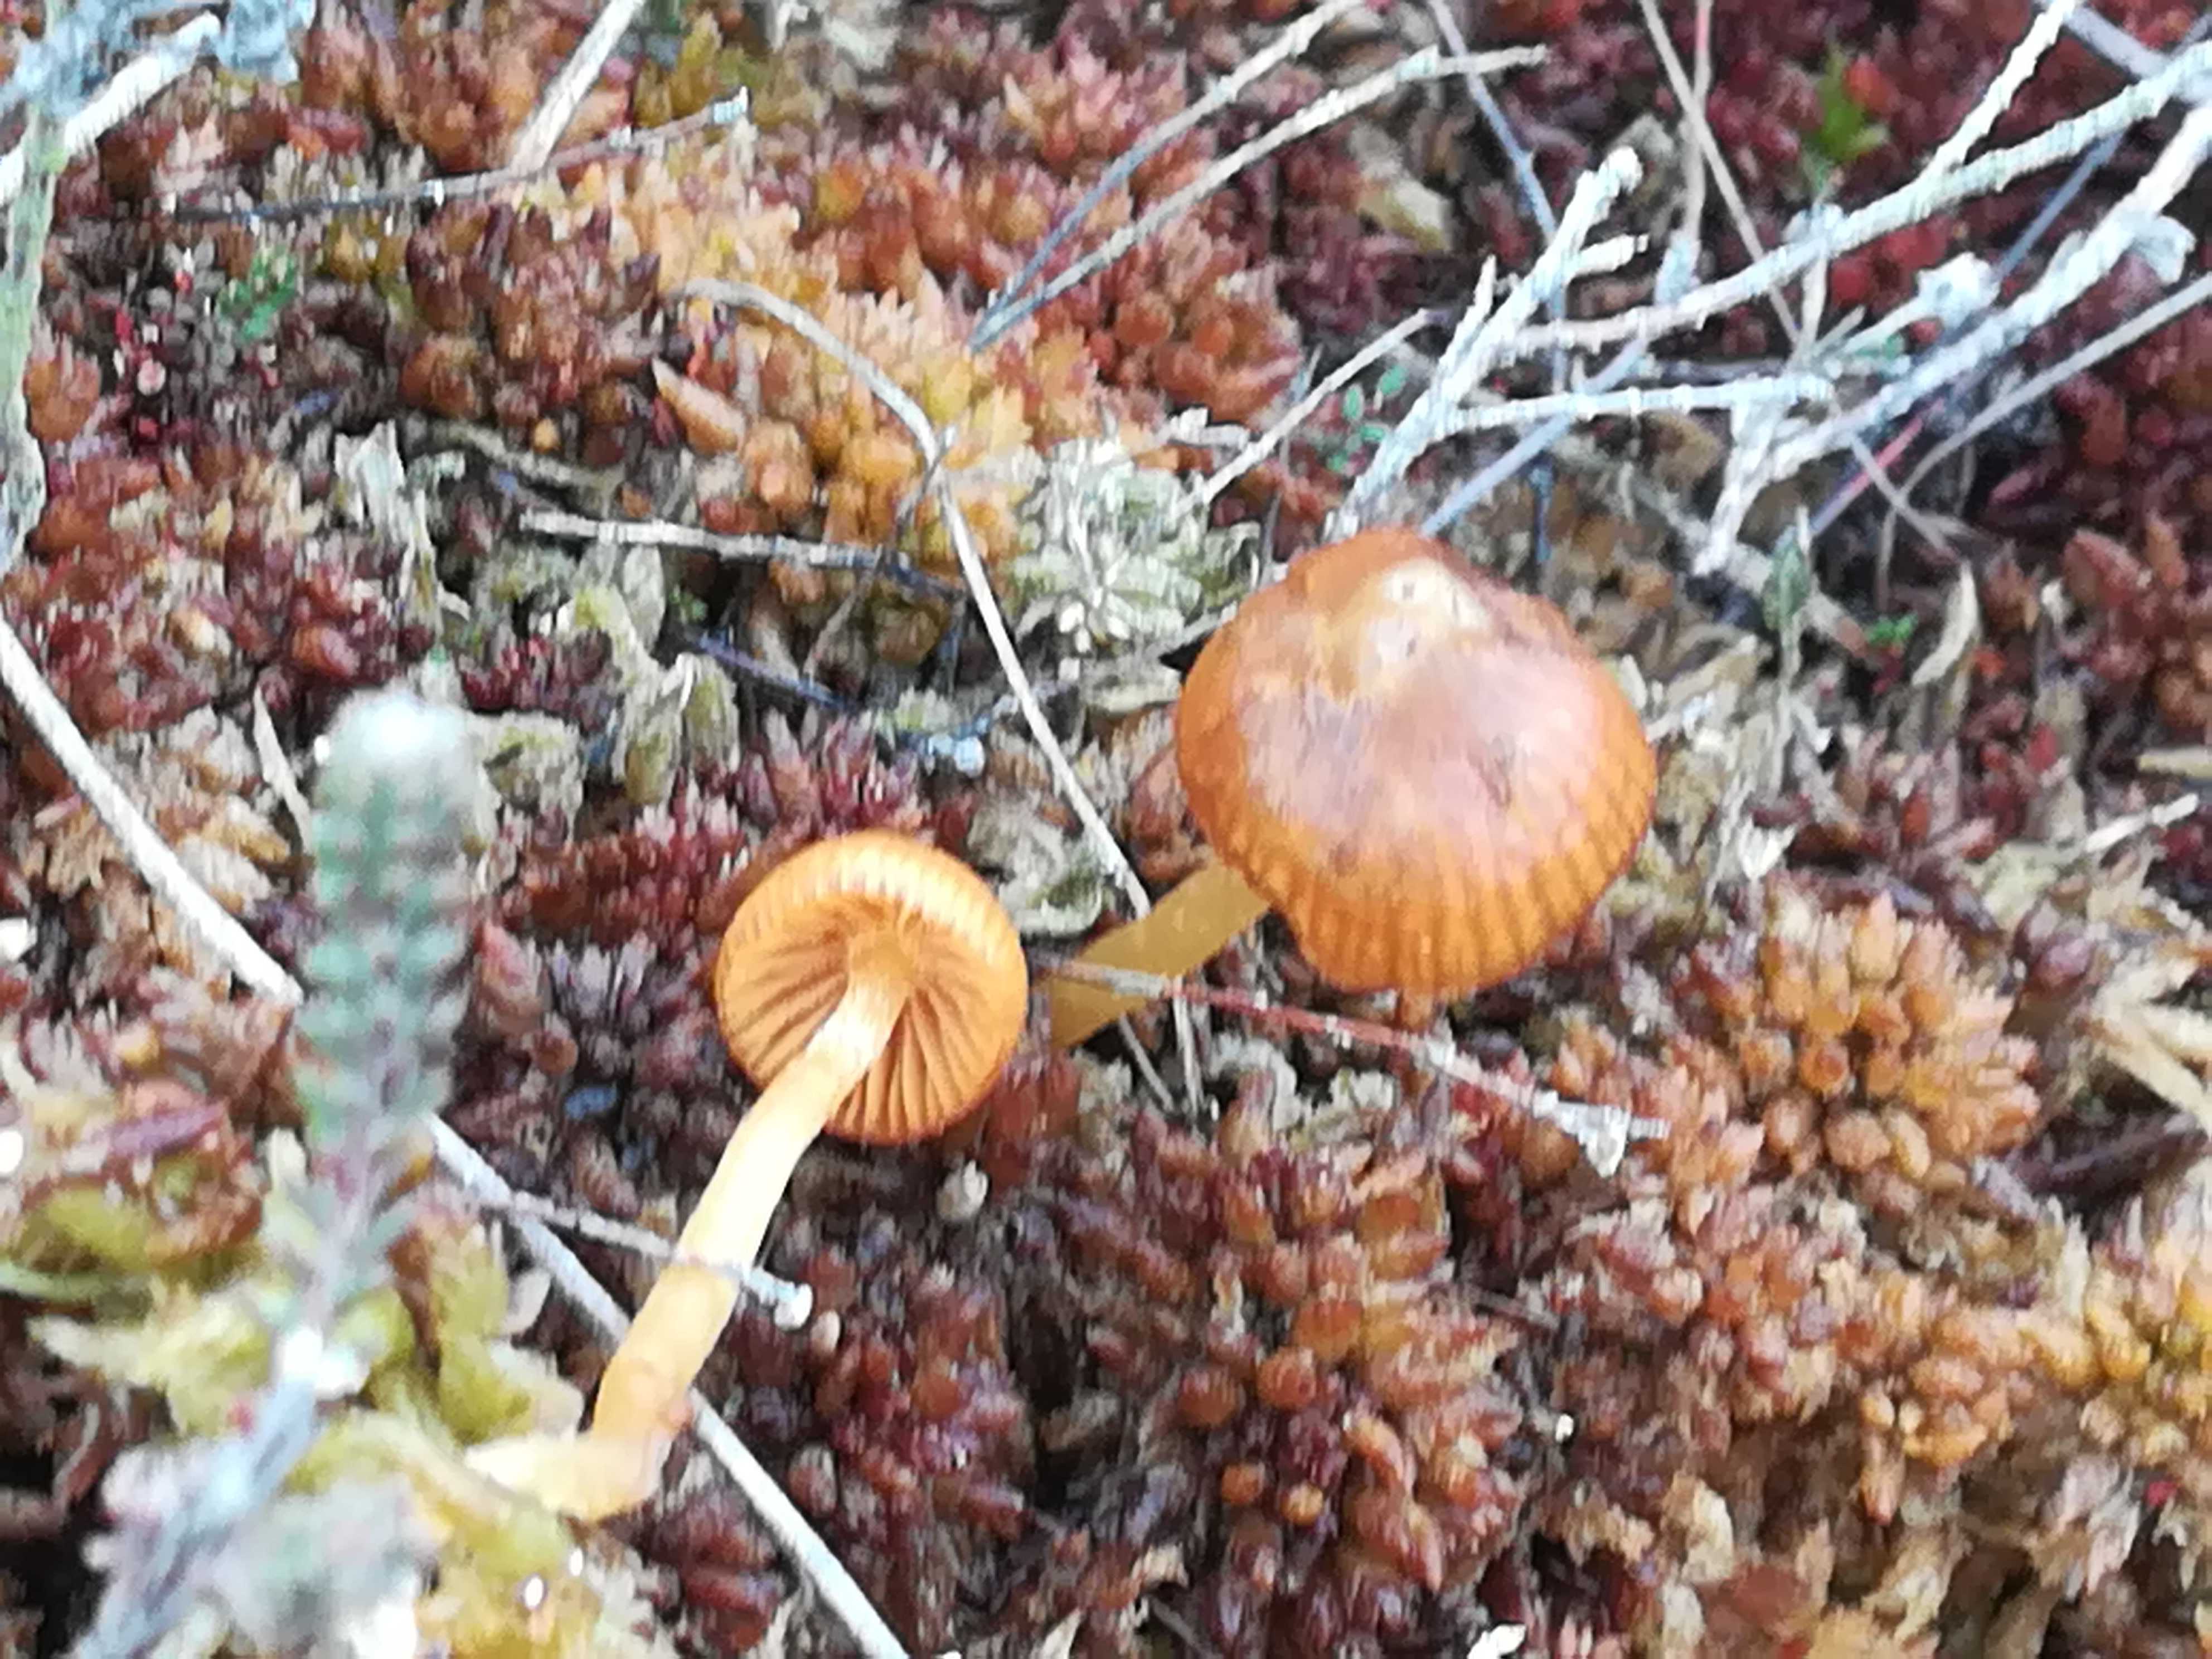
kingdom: Fungi
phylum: Basidiomycota
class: Agaricomycetes
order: Agaricales
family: Hymenogastraceae
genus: Galerina
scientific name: Galerina
